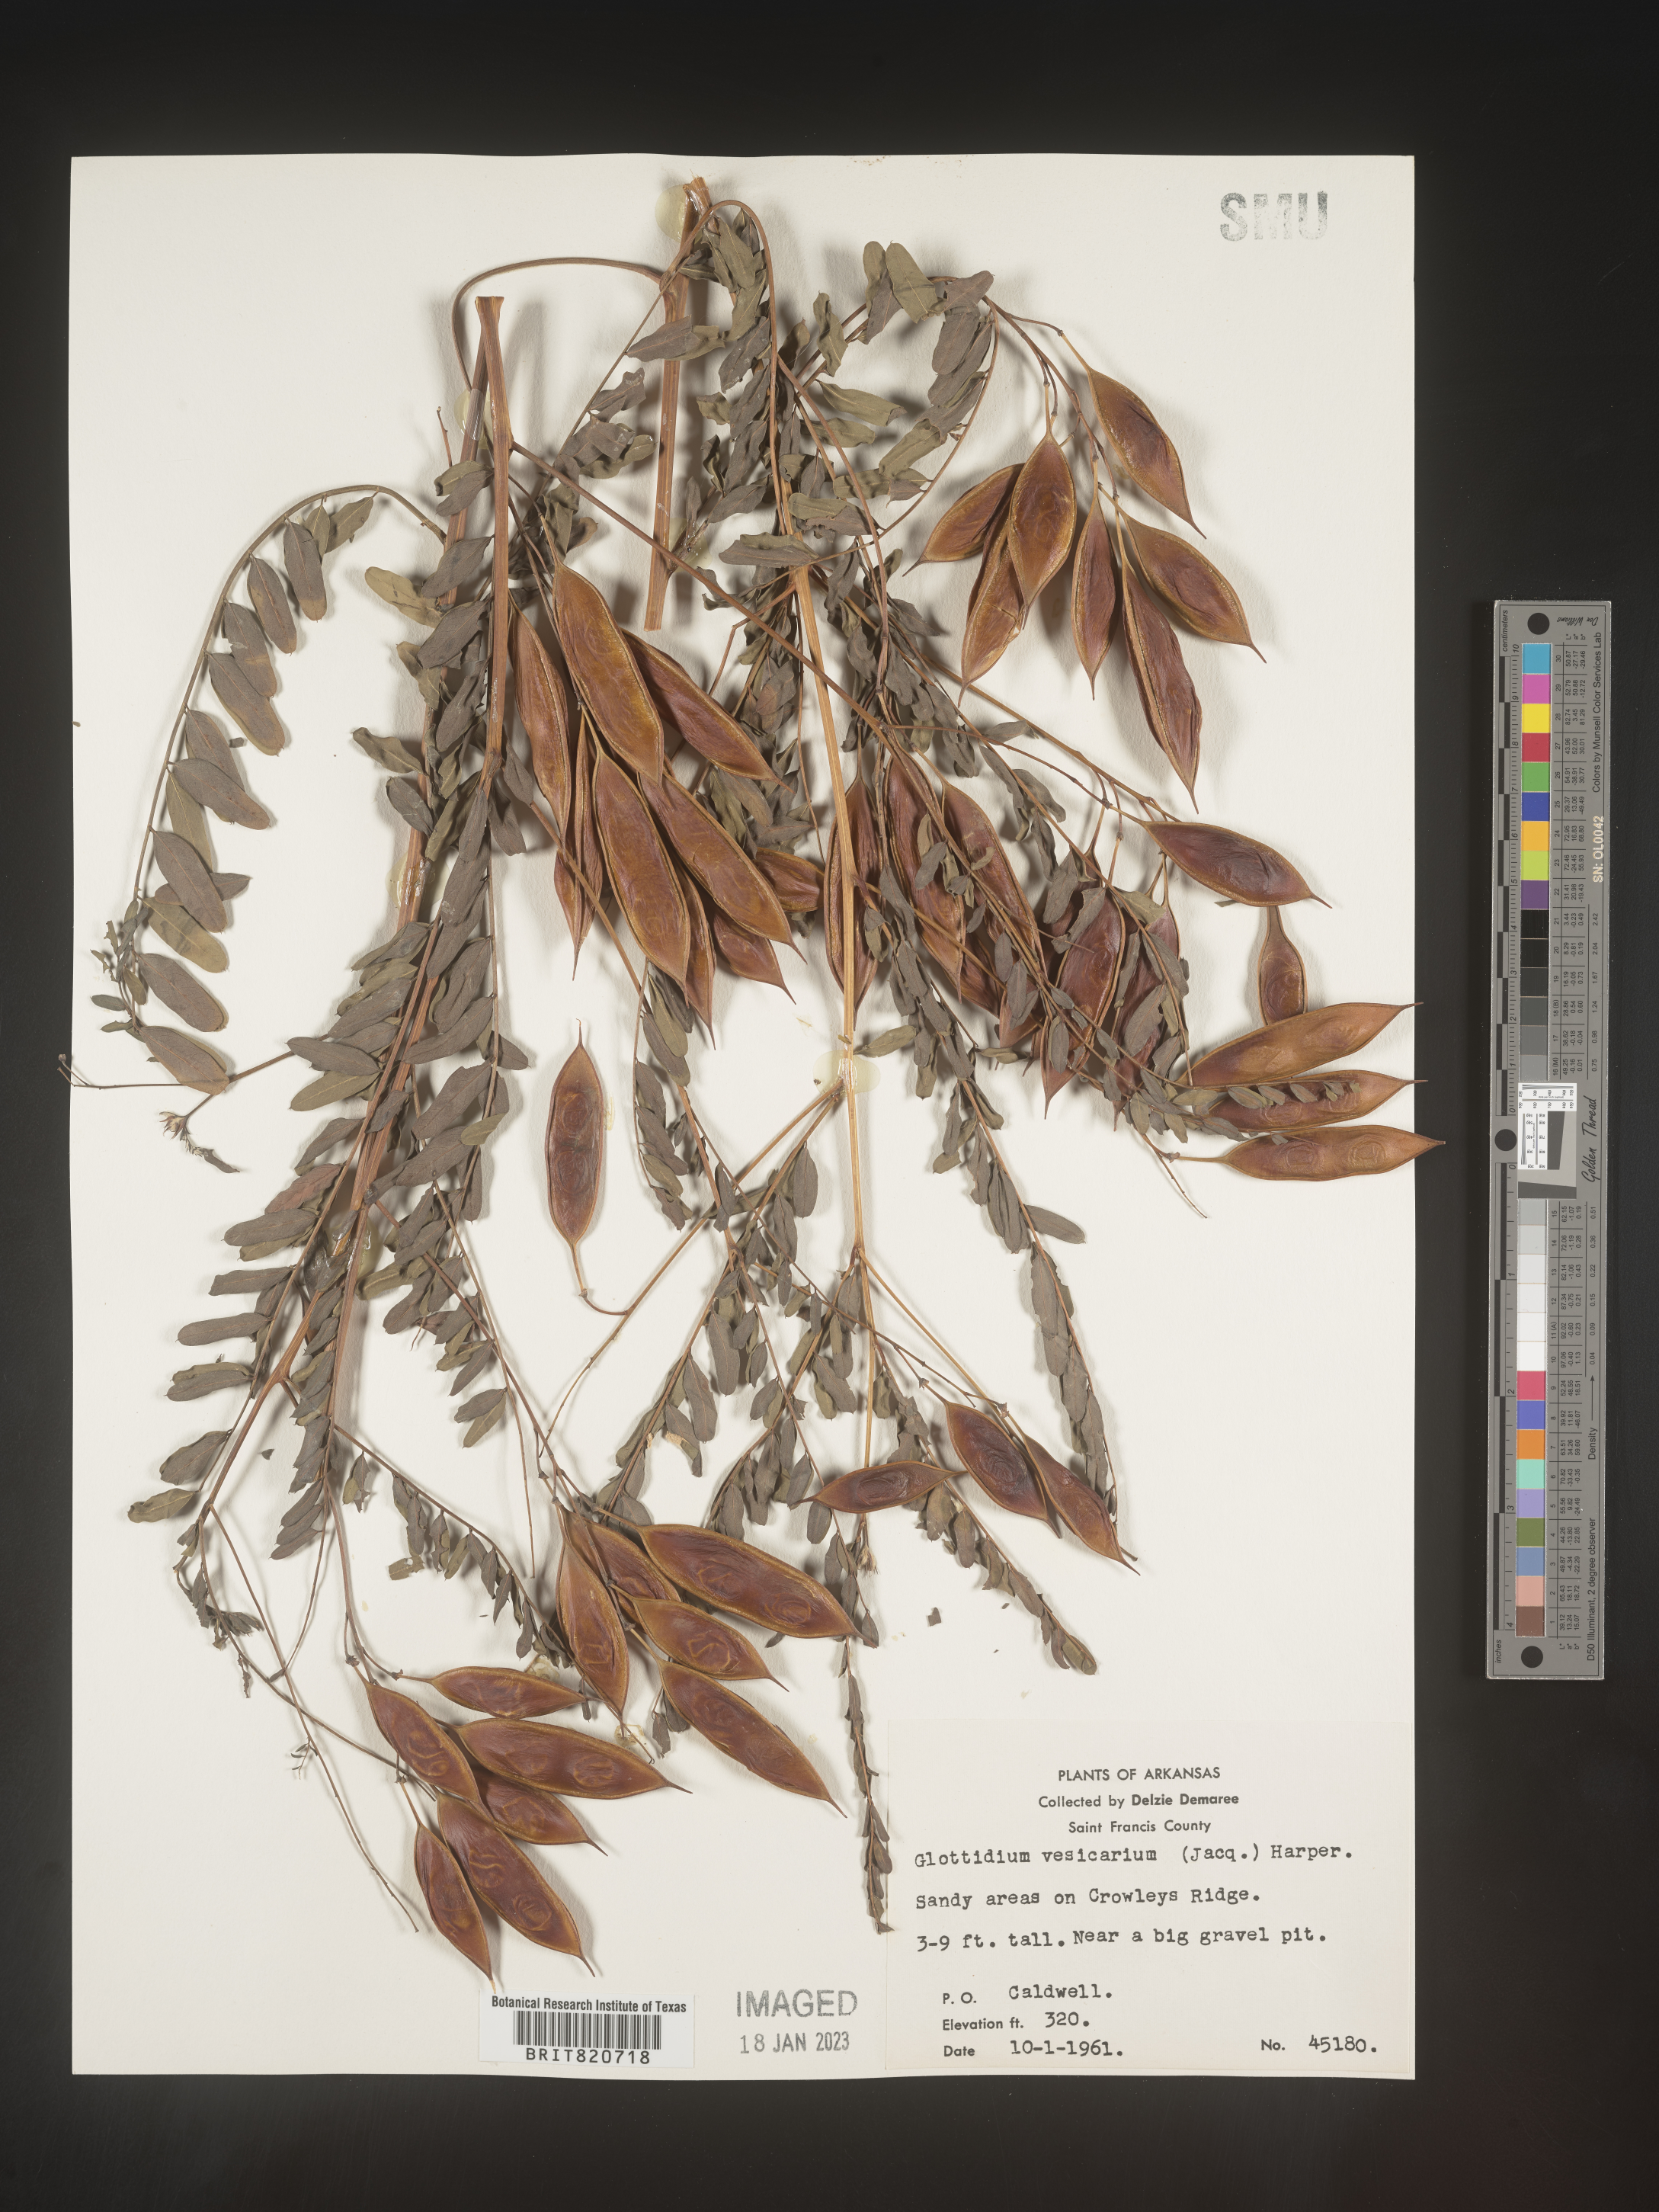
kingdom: Plantae
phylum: Tracheophyta
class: Magnoliopsida
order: Fabales
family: Fabaceae
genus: Sesbania
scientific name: Sesbania vesicaria
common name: Bagpod
